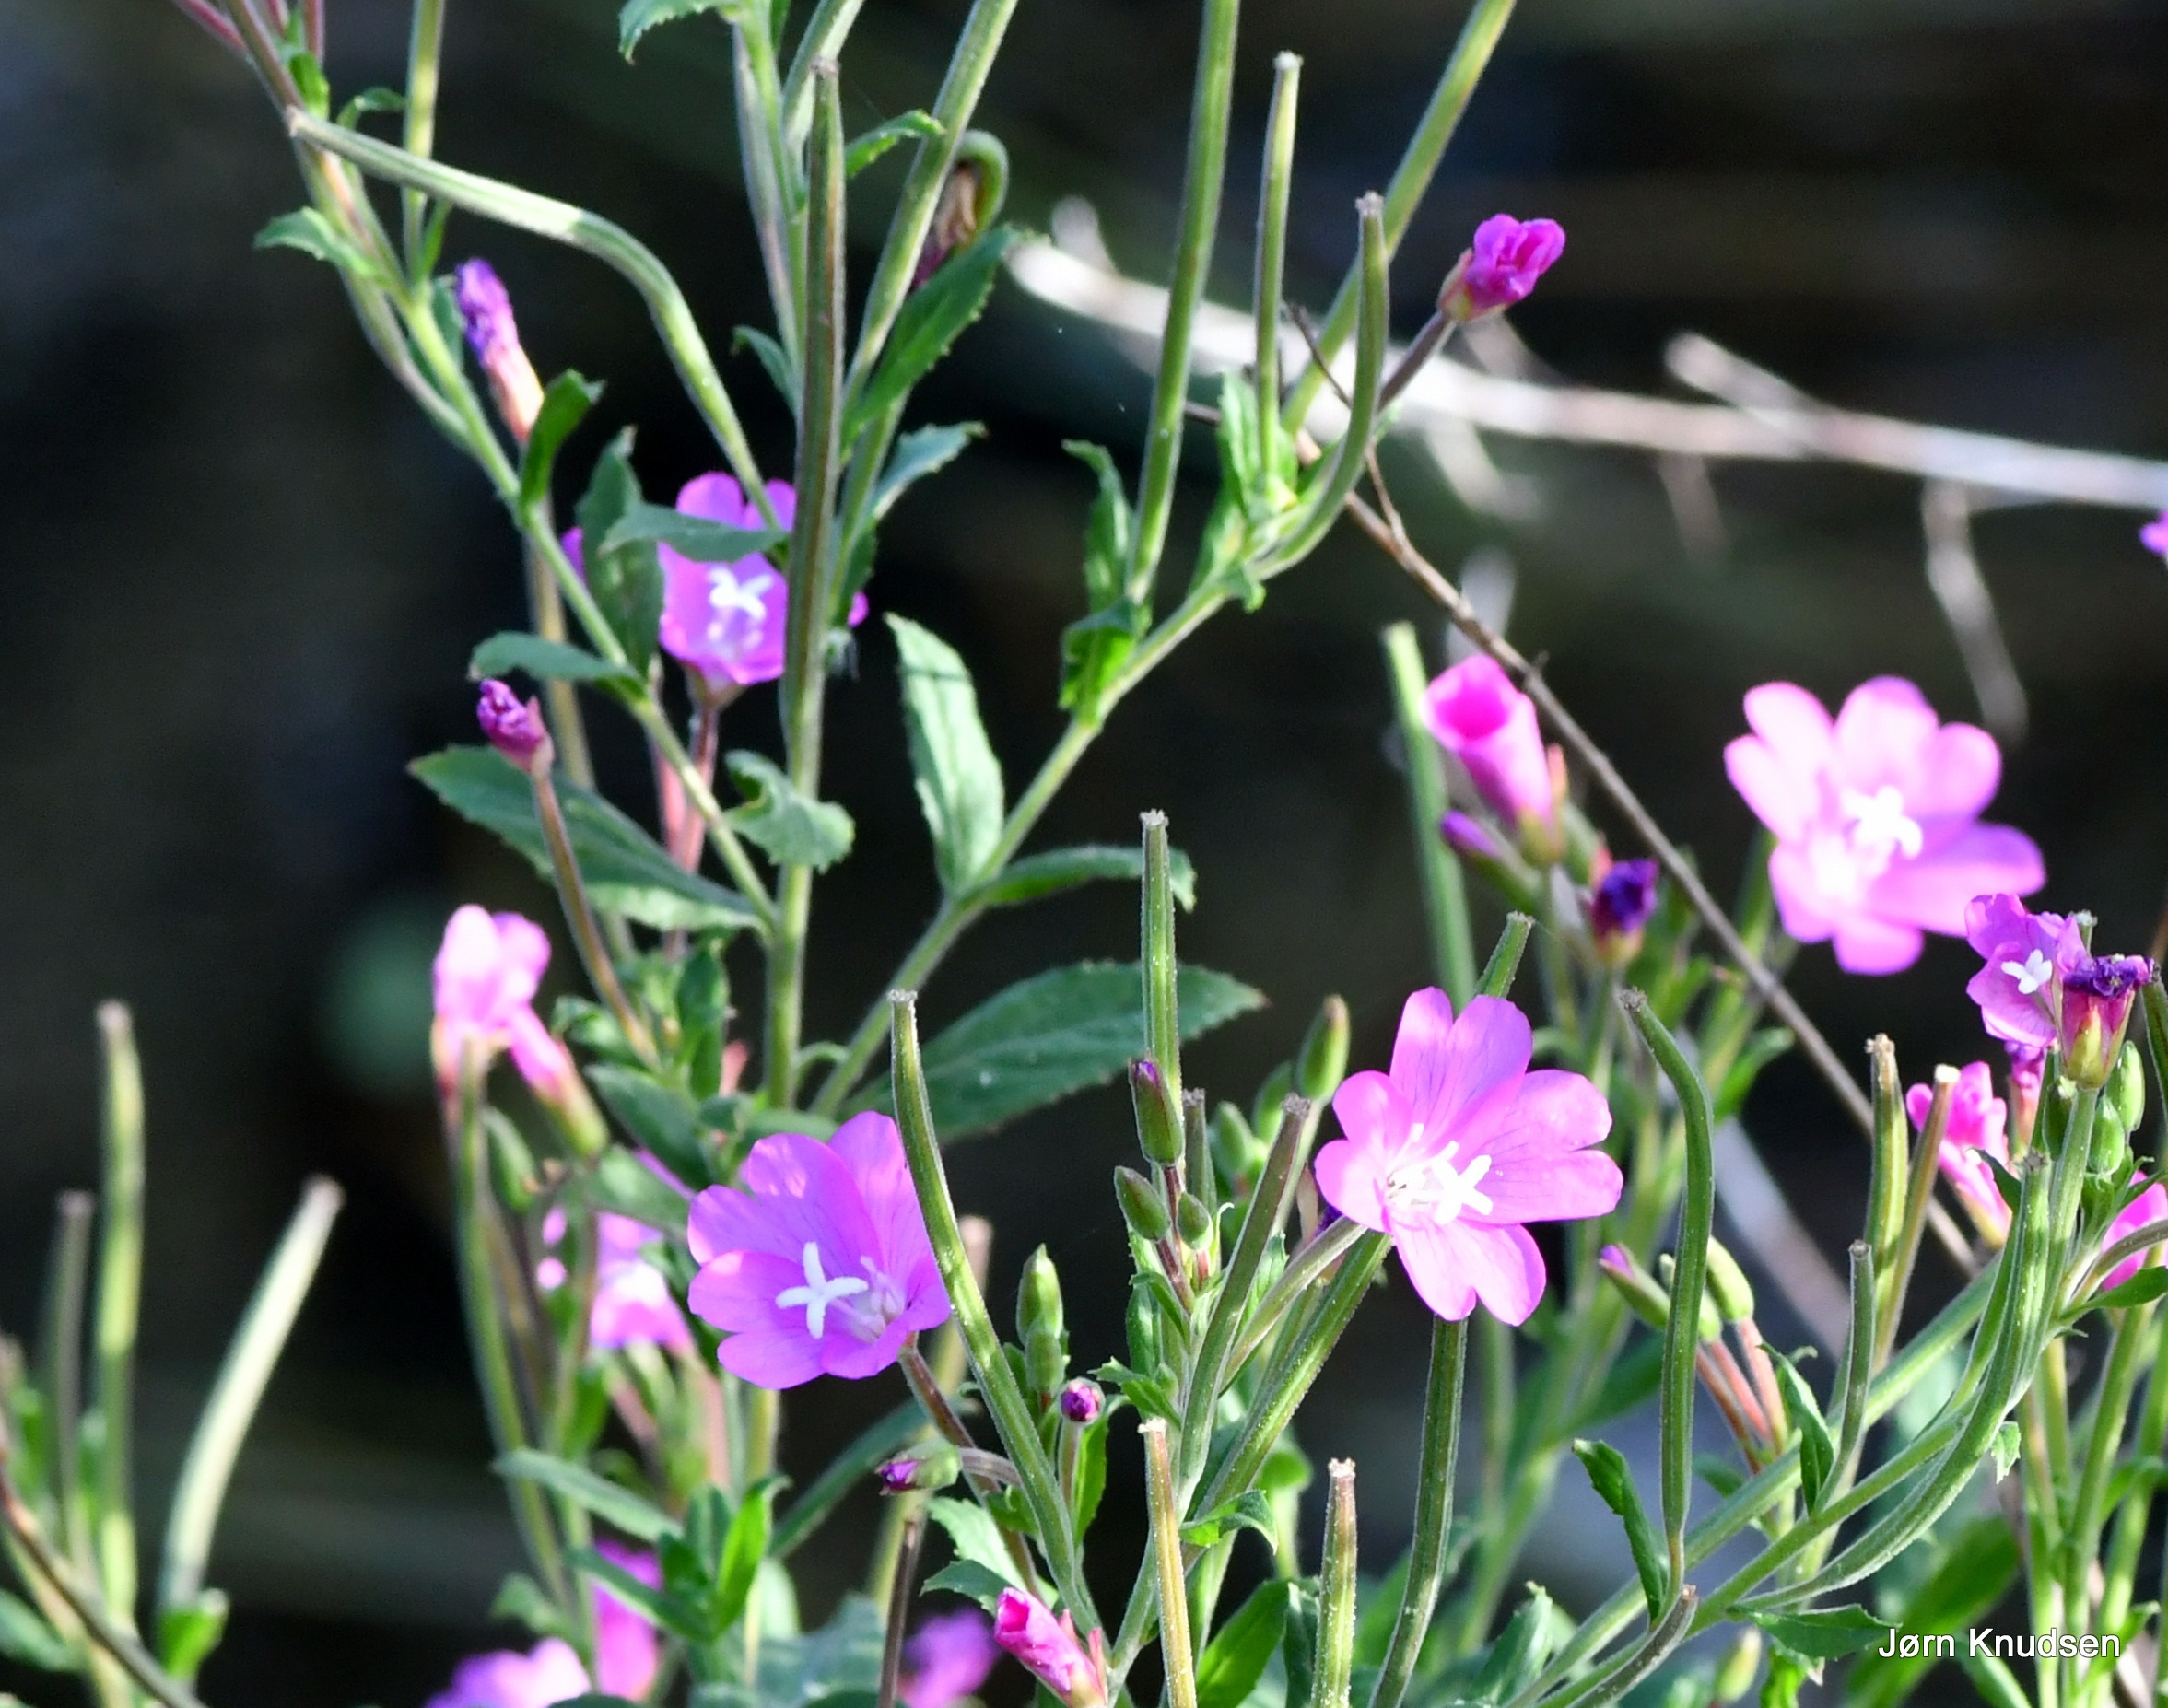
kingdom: Plantae
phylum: Tracheophyta
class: Magnoliopsida
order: Myrtales
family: Onagraceae
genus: Epilobium
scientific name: Epilobium hirsutum
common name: Lådden dueurt
